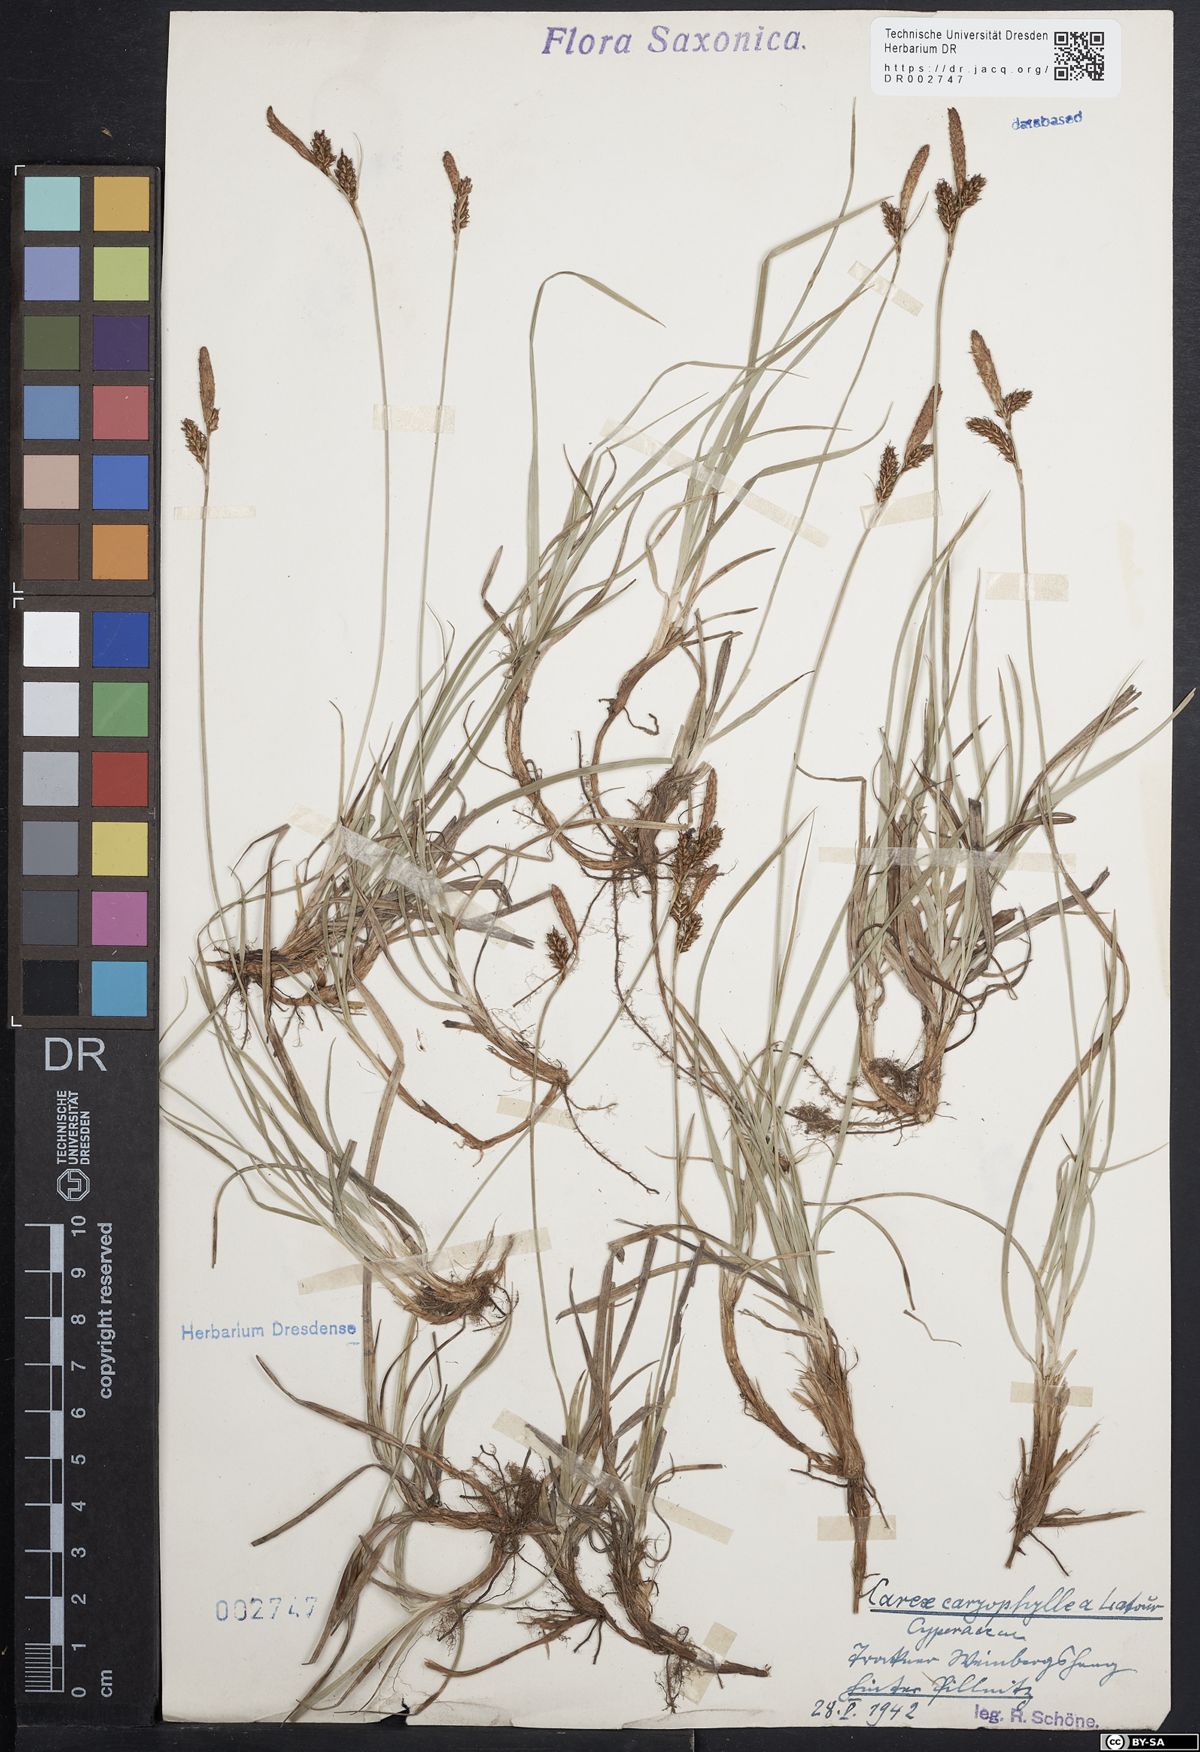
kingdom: Plantae
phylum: Tracheophyta
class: Liliopsida
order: Poales
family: Cyperaceae
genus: Carex
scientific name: Carex caryophyllea
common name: Spring sedge
